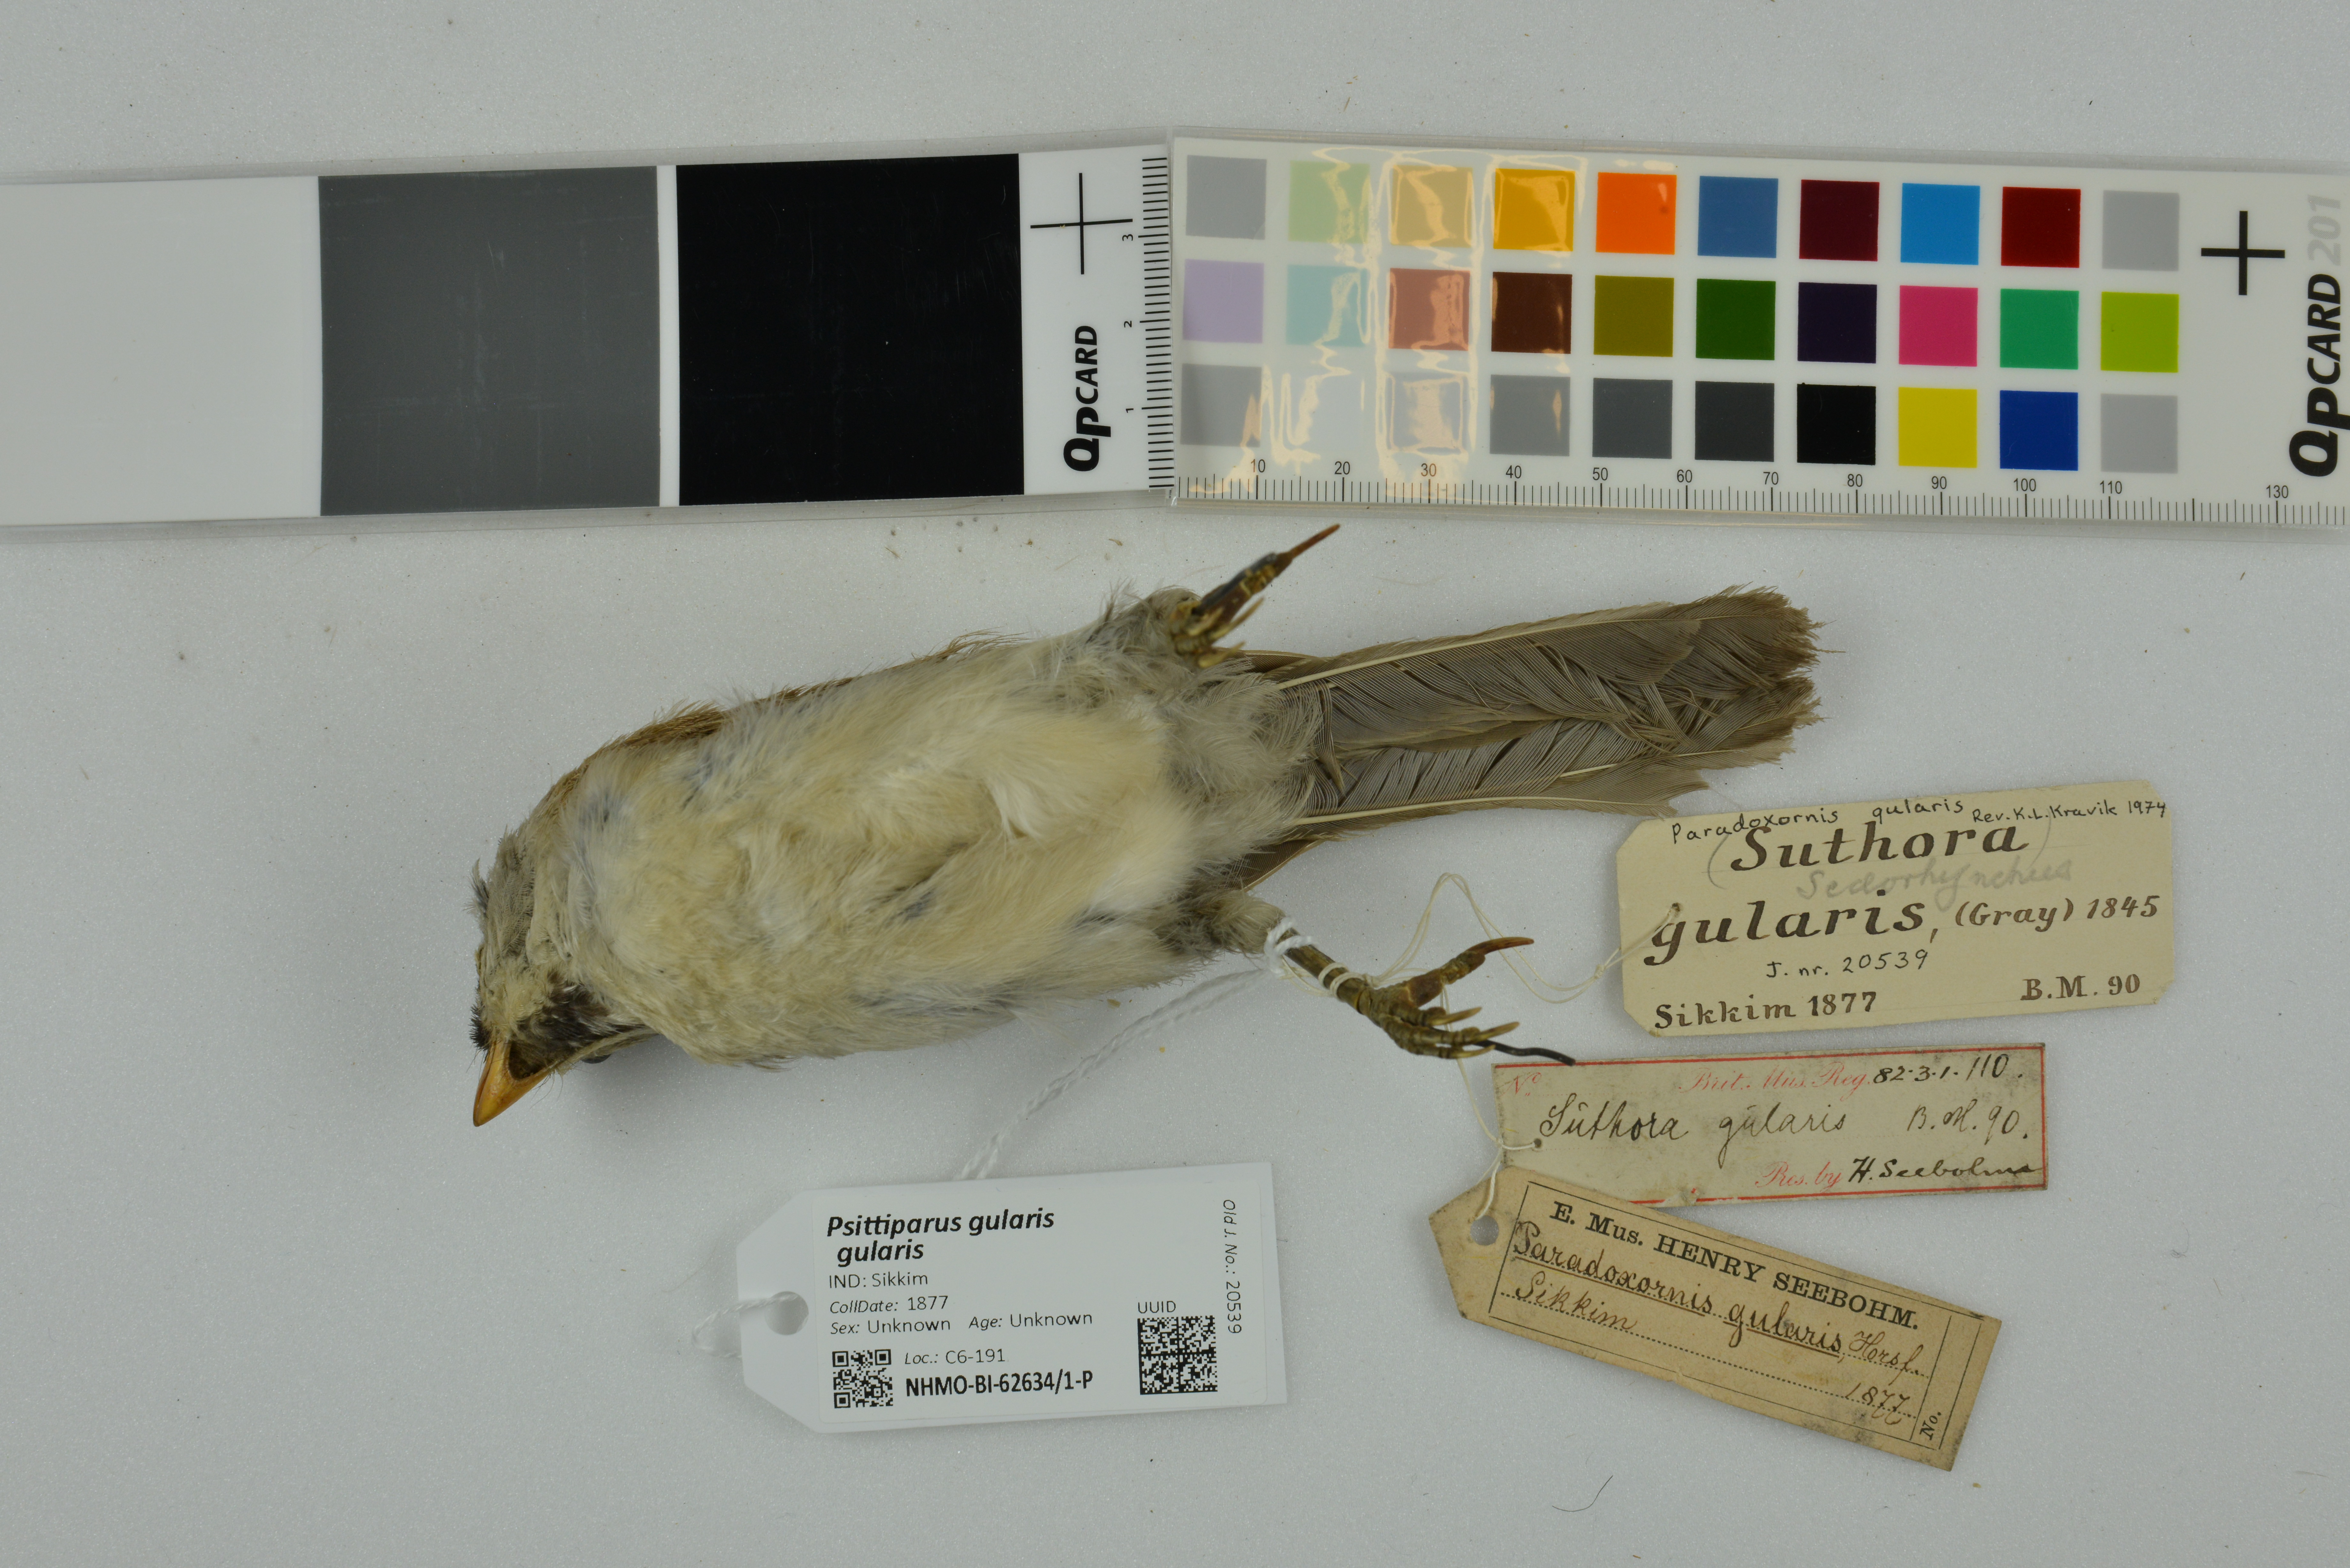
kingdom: Animalia
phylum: Chordata
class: Aves
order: Passeriformes
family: Sylviidae
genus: Psittiparus
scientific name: Psittiparus gularis
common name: Gray-headed parrotbill
